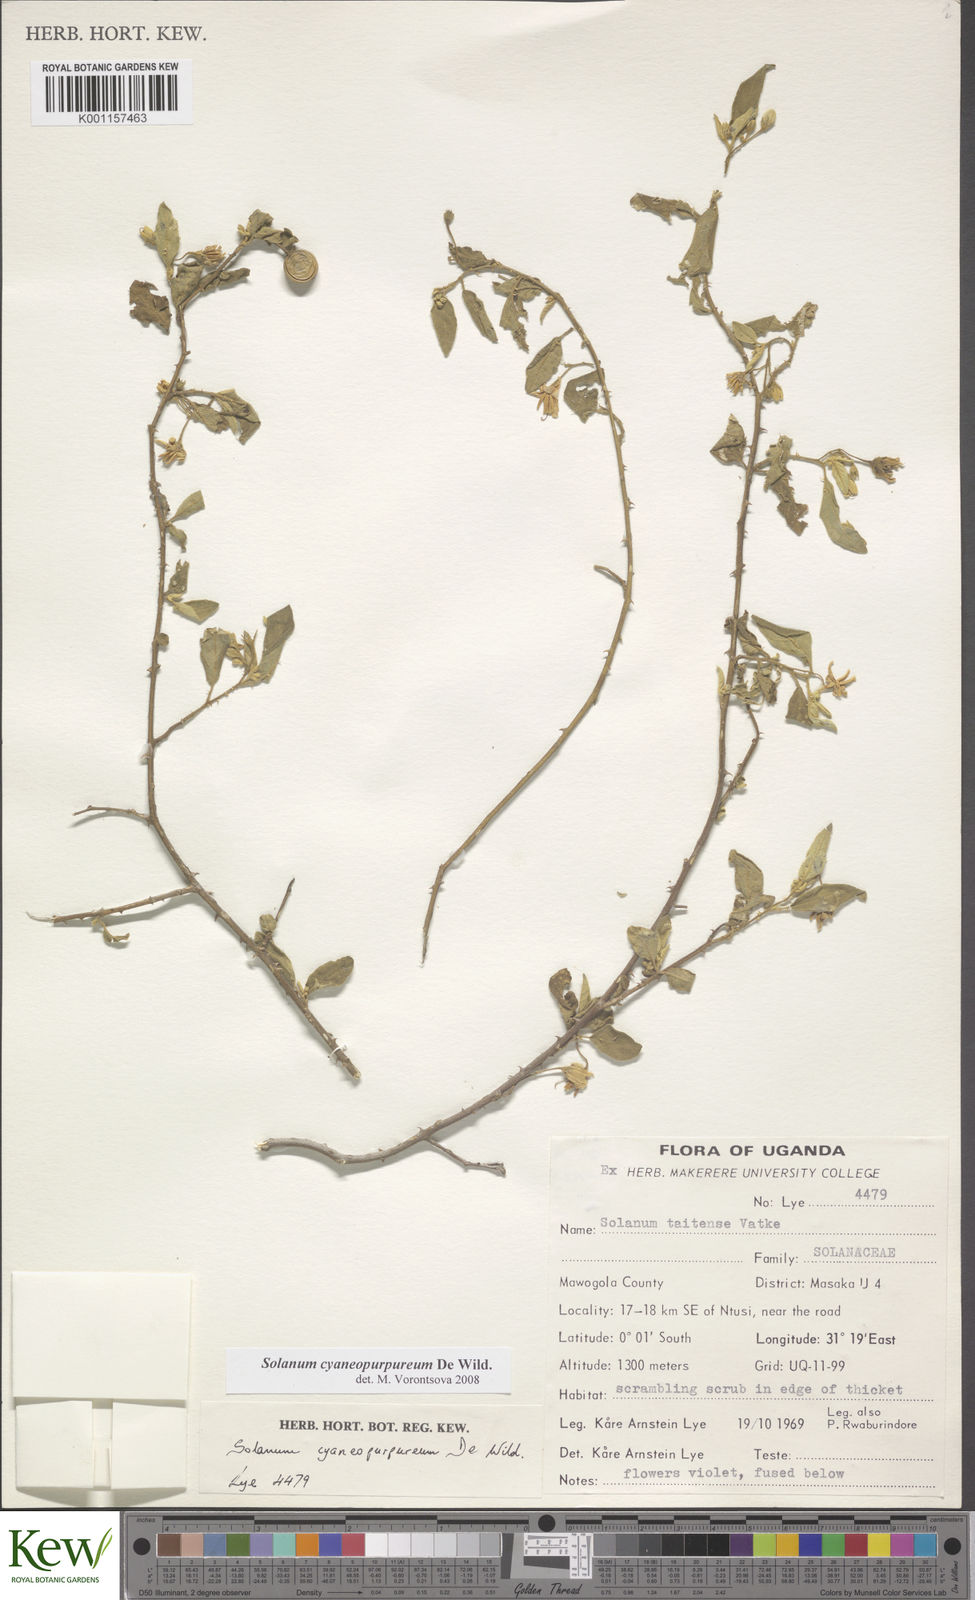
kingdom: Plantae
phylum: Tracheophyta
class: Magnoliopsida
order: Solanales
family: Solanaceae
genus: Solanum
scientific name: Solanum cyaneopurpureum
